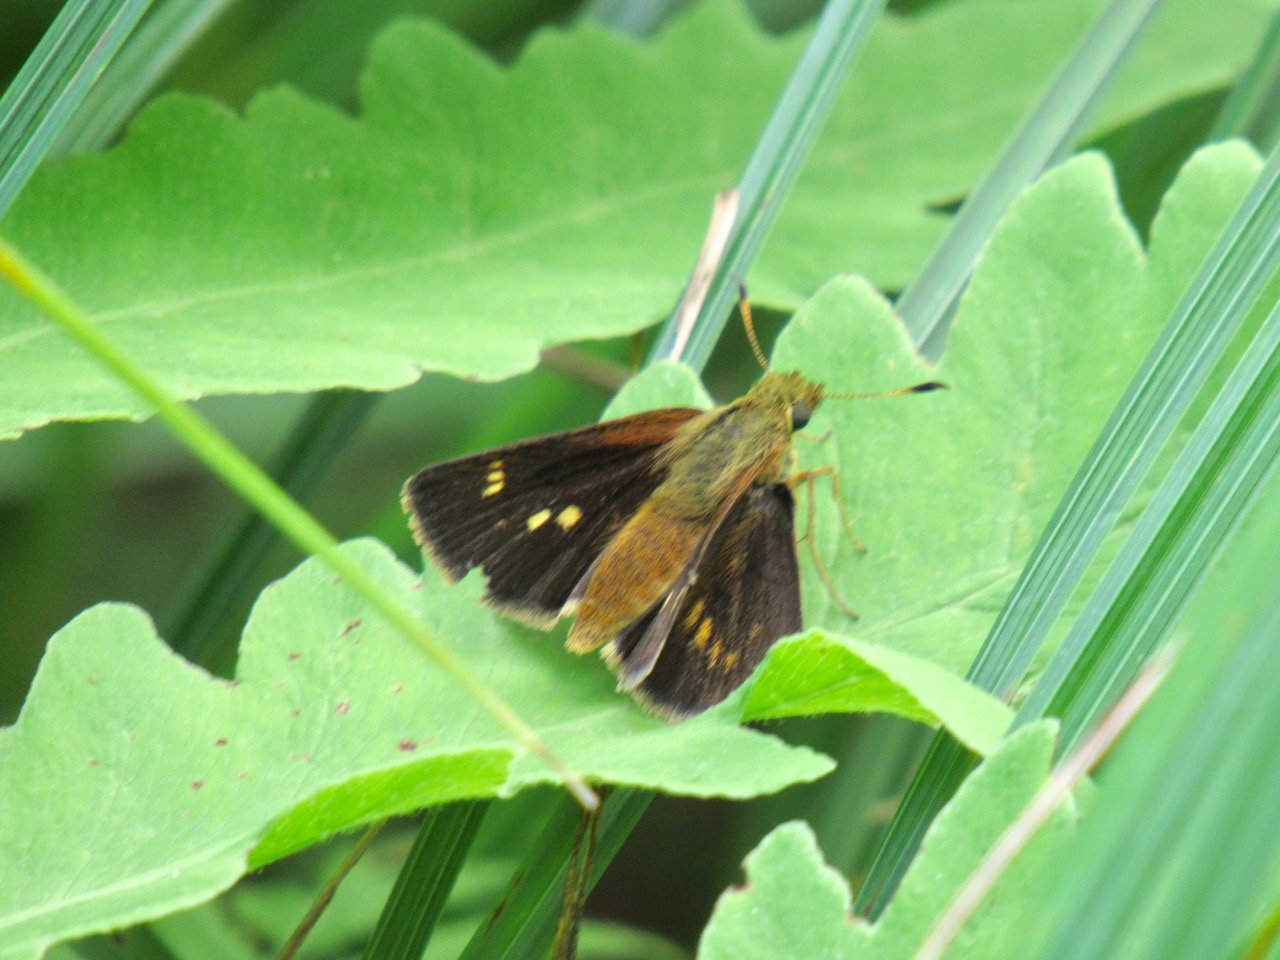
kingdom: Animalia
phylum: Arthropoda
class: Insecta
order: Lepidoptera
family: Hesperiidae
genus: Poanes
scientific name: Poanes massasoit
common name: Mulberry Wing
